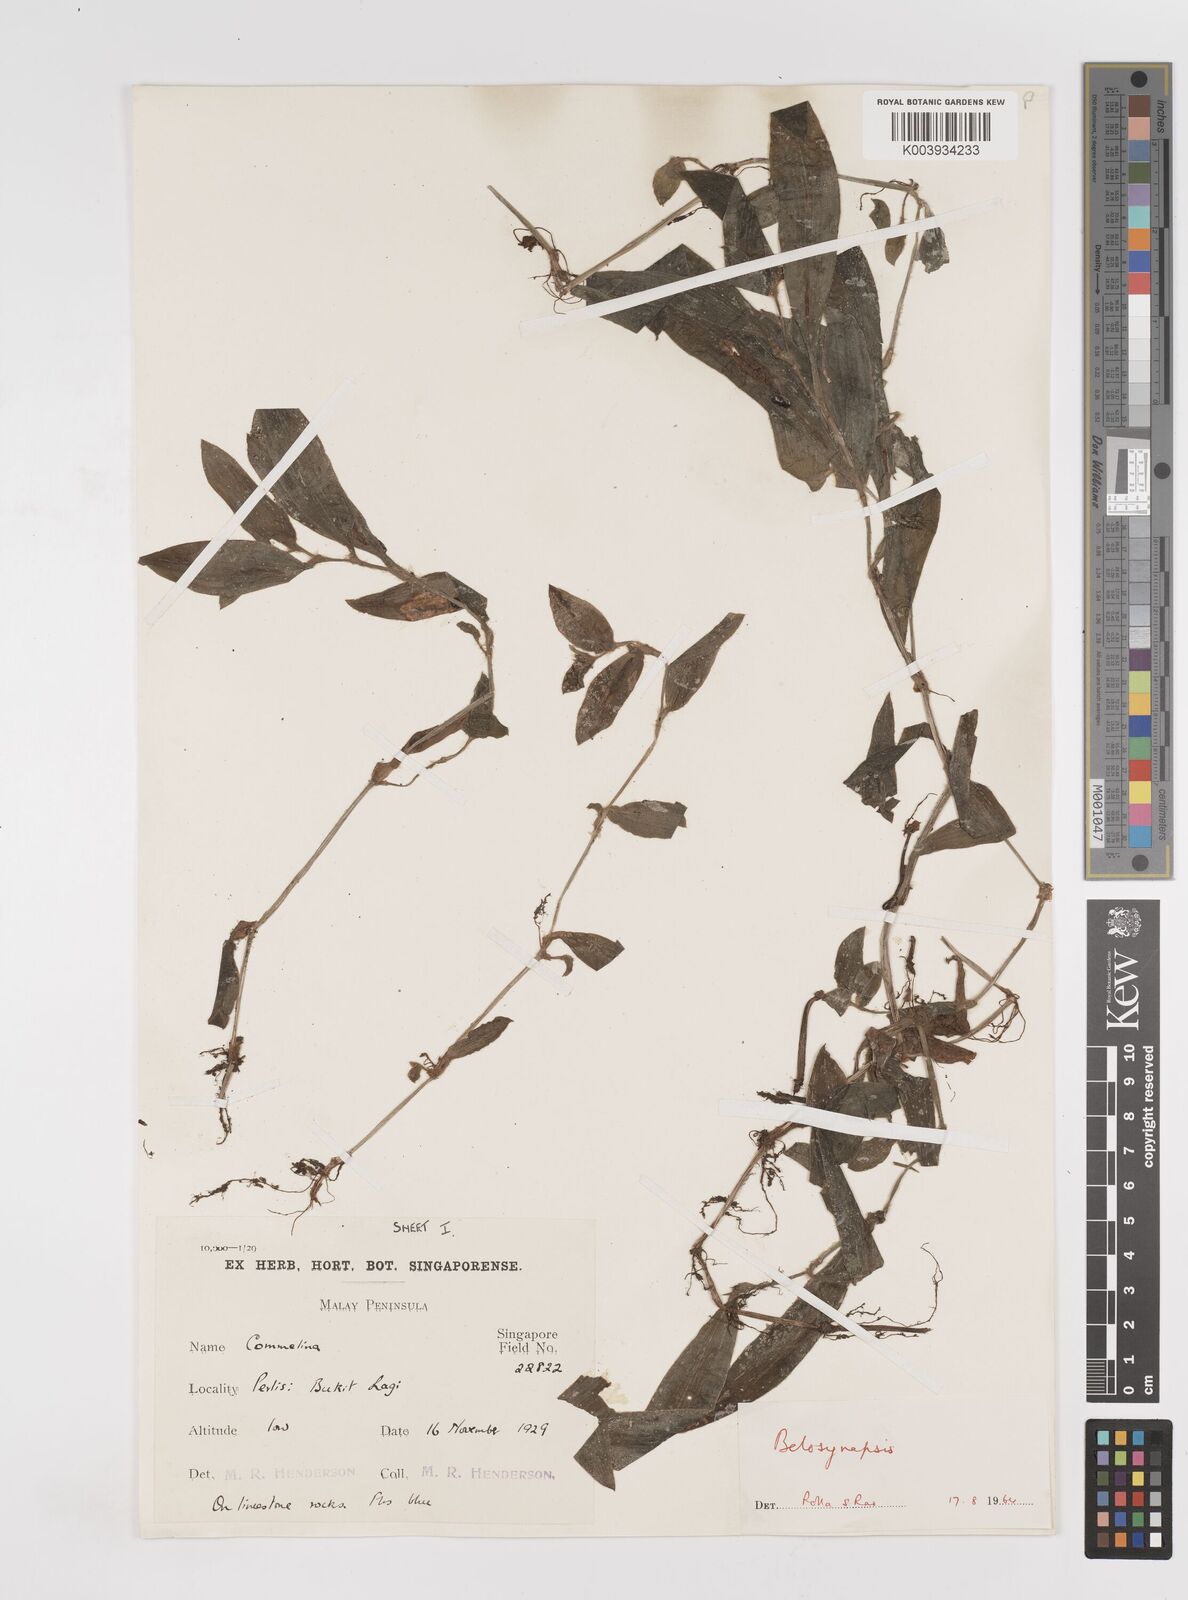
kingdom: Plantae
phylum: Tracheophyta
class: Liliopsida
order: Commelinales
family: Commelinaceae
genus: Cyanotis
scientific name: Cyanotis
